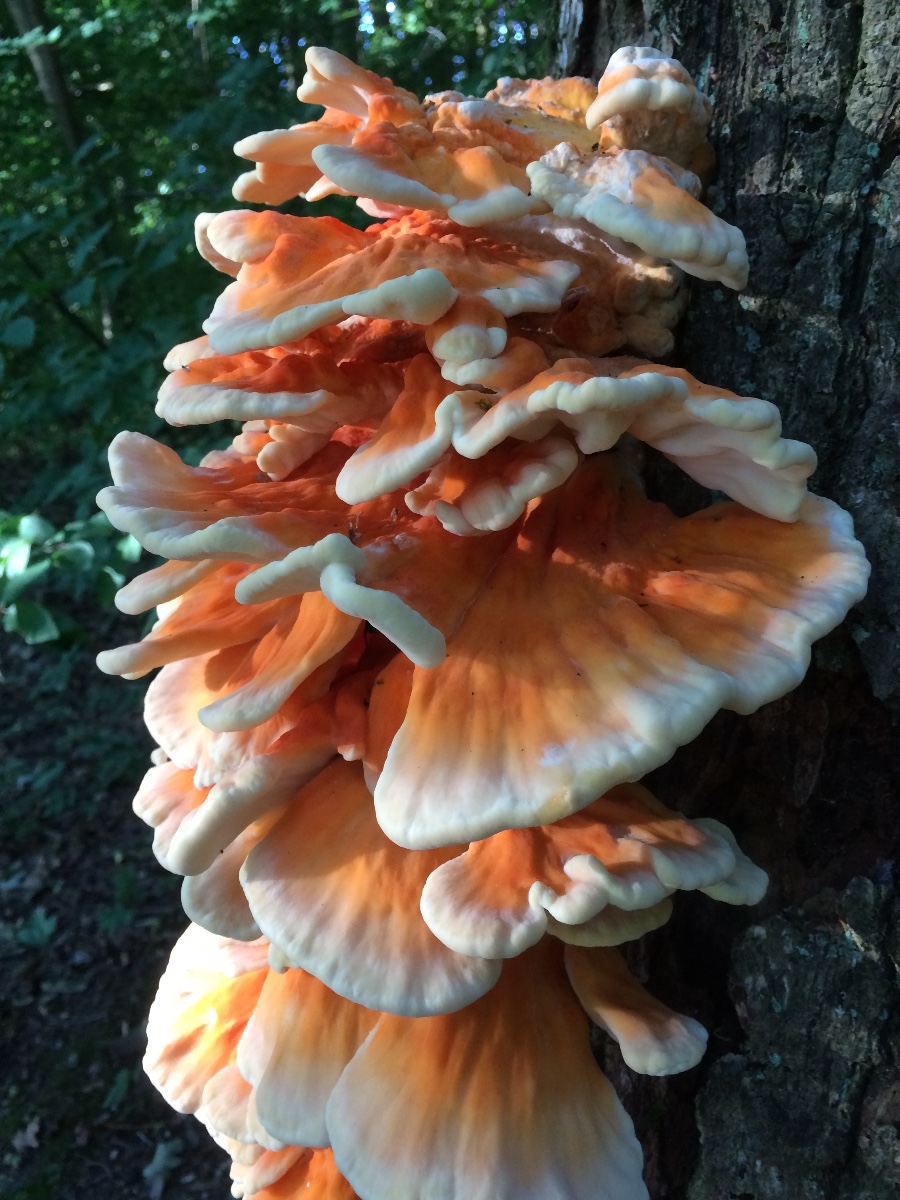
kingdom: Fungi
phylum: Basidiomycota
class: Agaricomycetes
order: Polyporales
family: Laetiporaceae
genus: Laetiporus
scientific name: Laetiporus sulphureus
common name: svovlporesvamp
